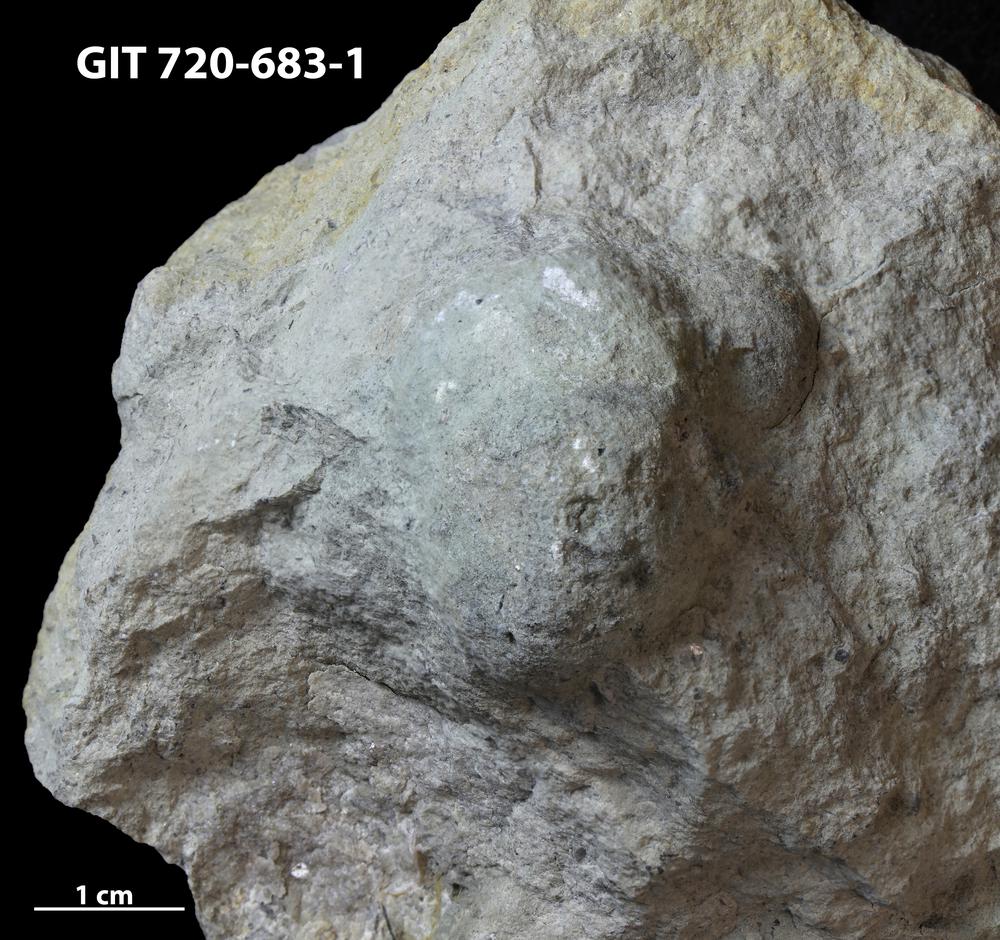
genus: Conichnus
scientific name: Conichnus
